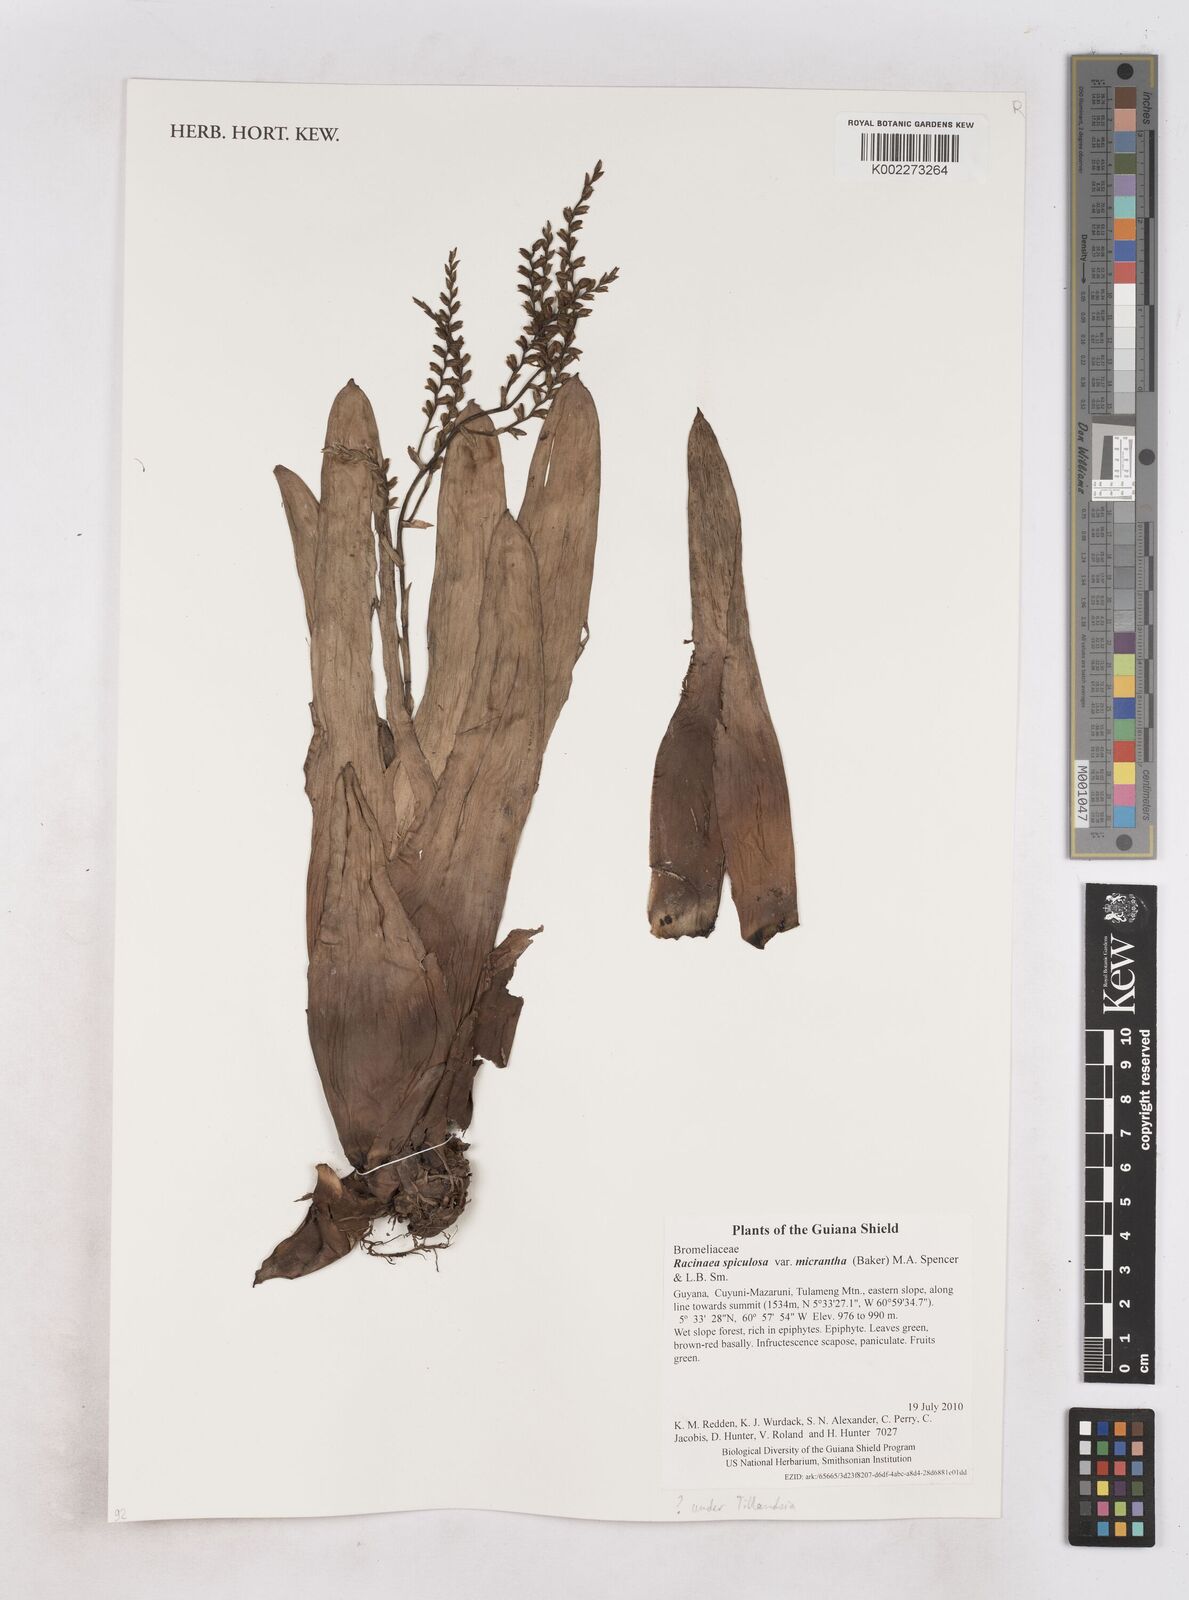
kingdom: Plantae
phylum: Tracheophyta
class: Liliopsida
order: Poales
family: Bromeliaceae
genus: Racinaea
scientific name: Racinaea spiculosa
